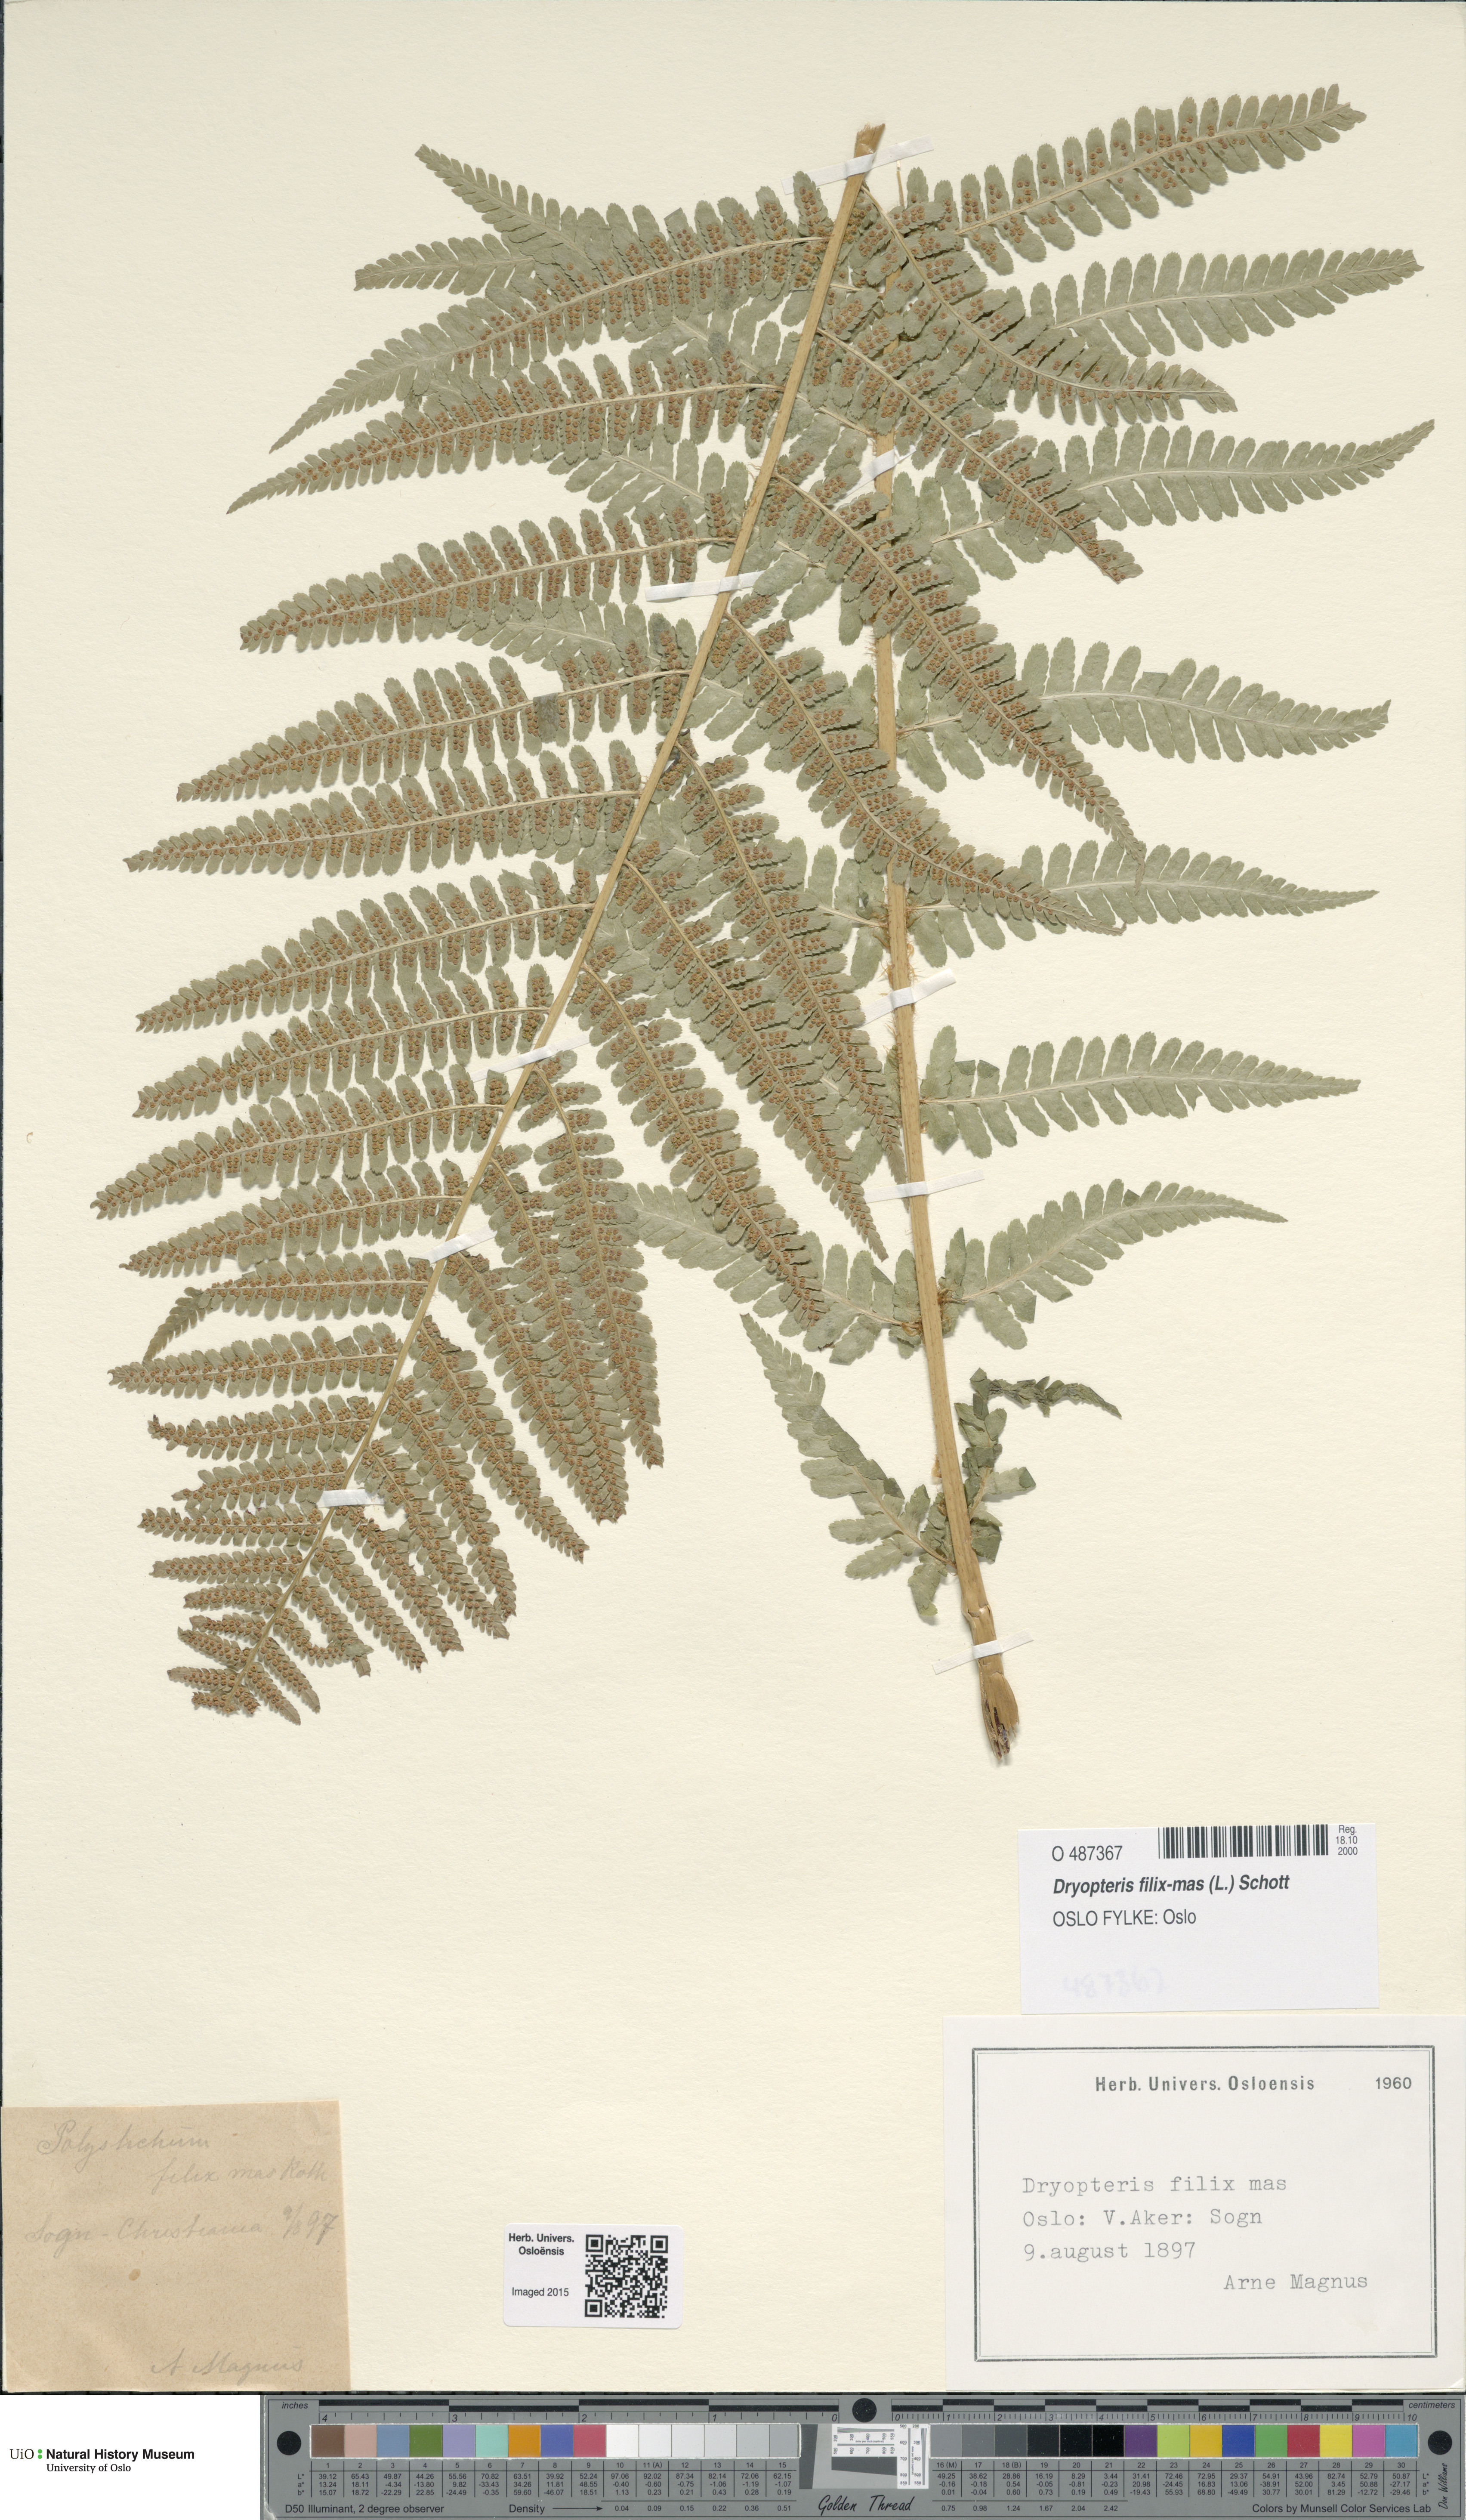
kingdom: Plantae
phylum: Tracheophyta
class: Polypodiopsida
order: Polypodiales
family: Dryopteridaceae
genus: Dryopteris
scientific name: Dryopteris filix-mas
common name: Male fern
